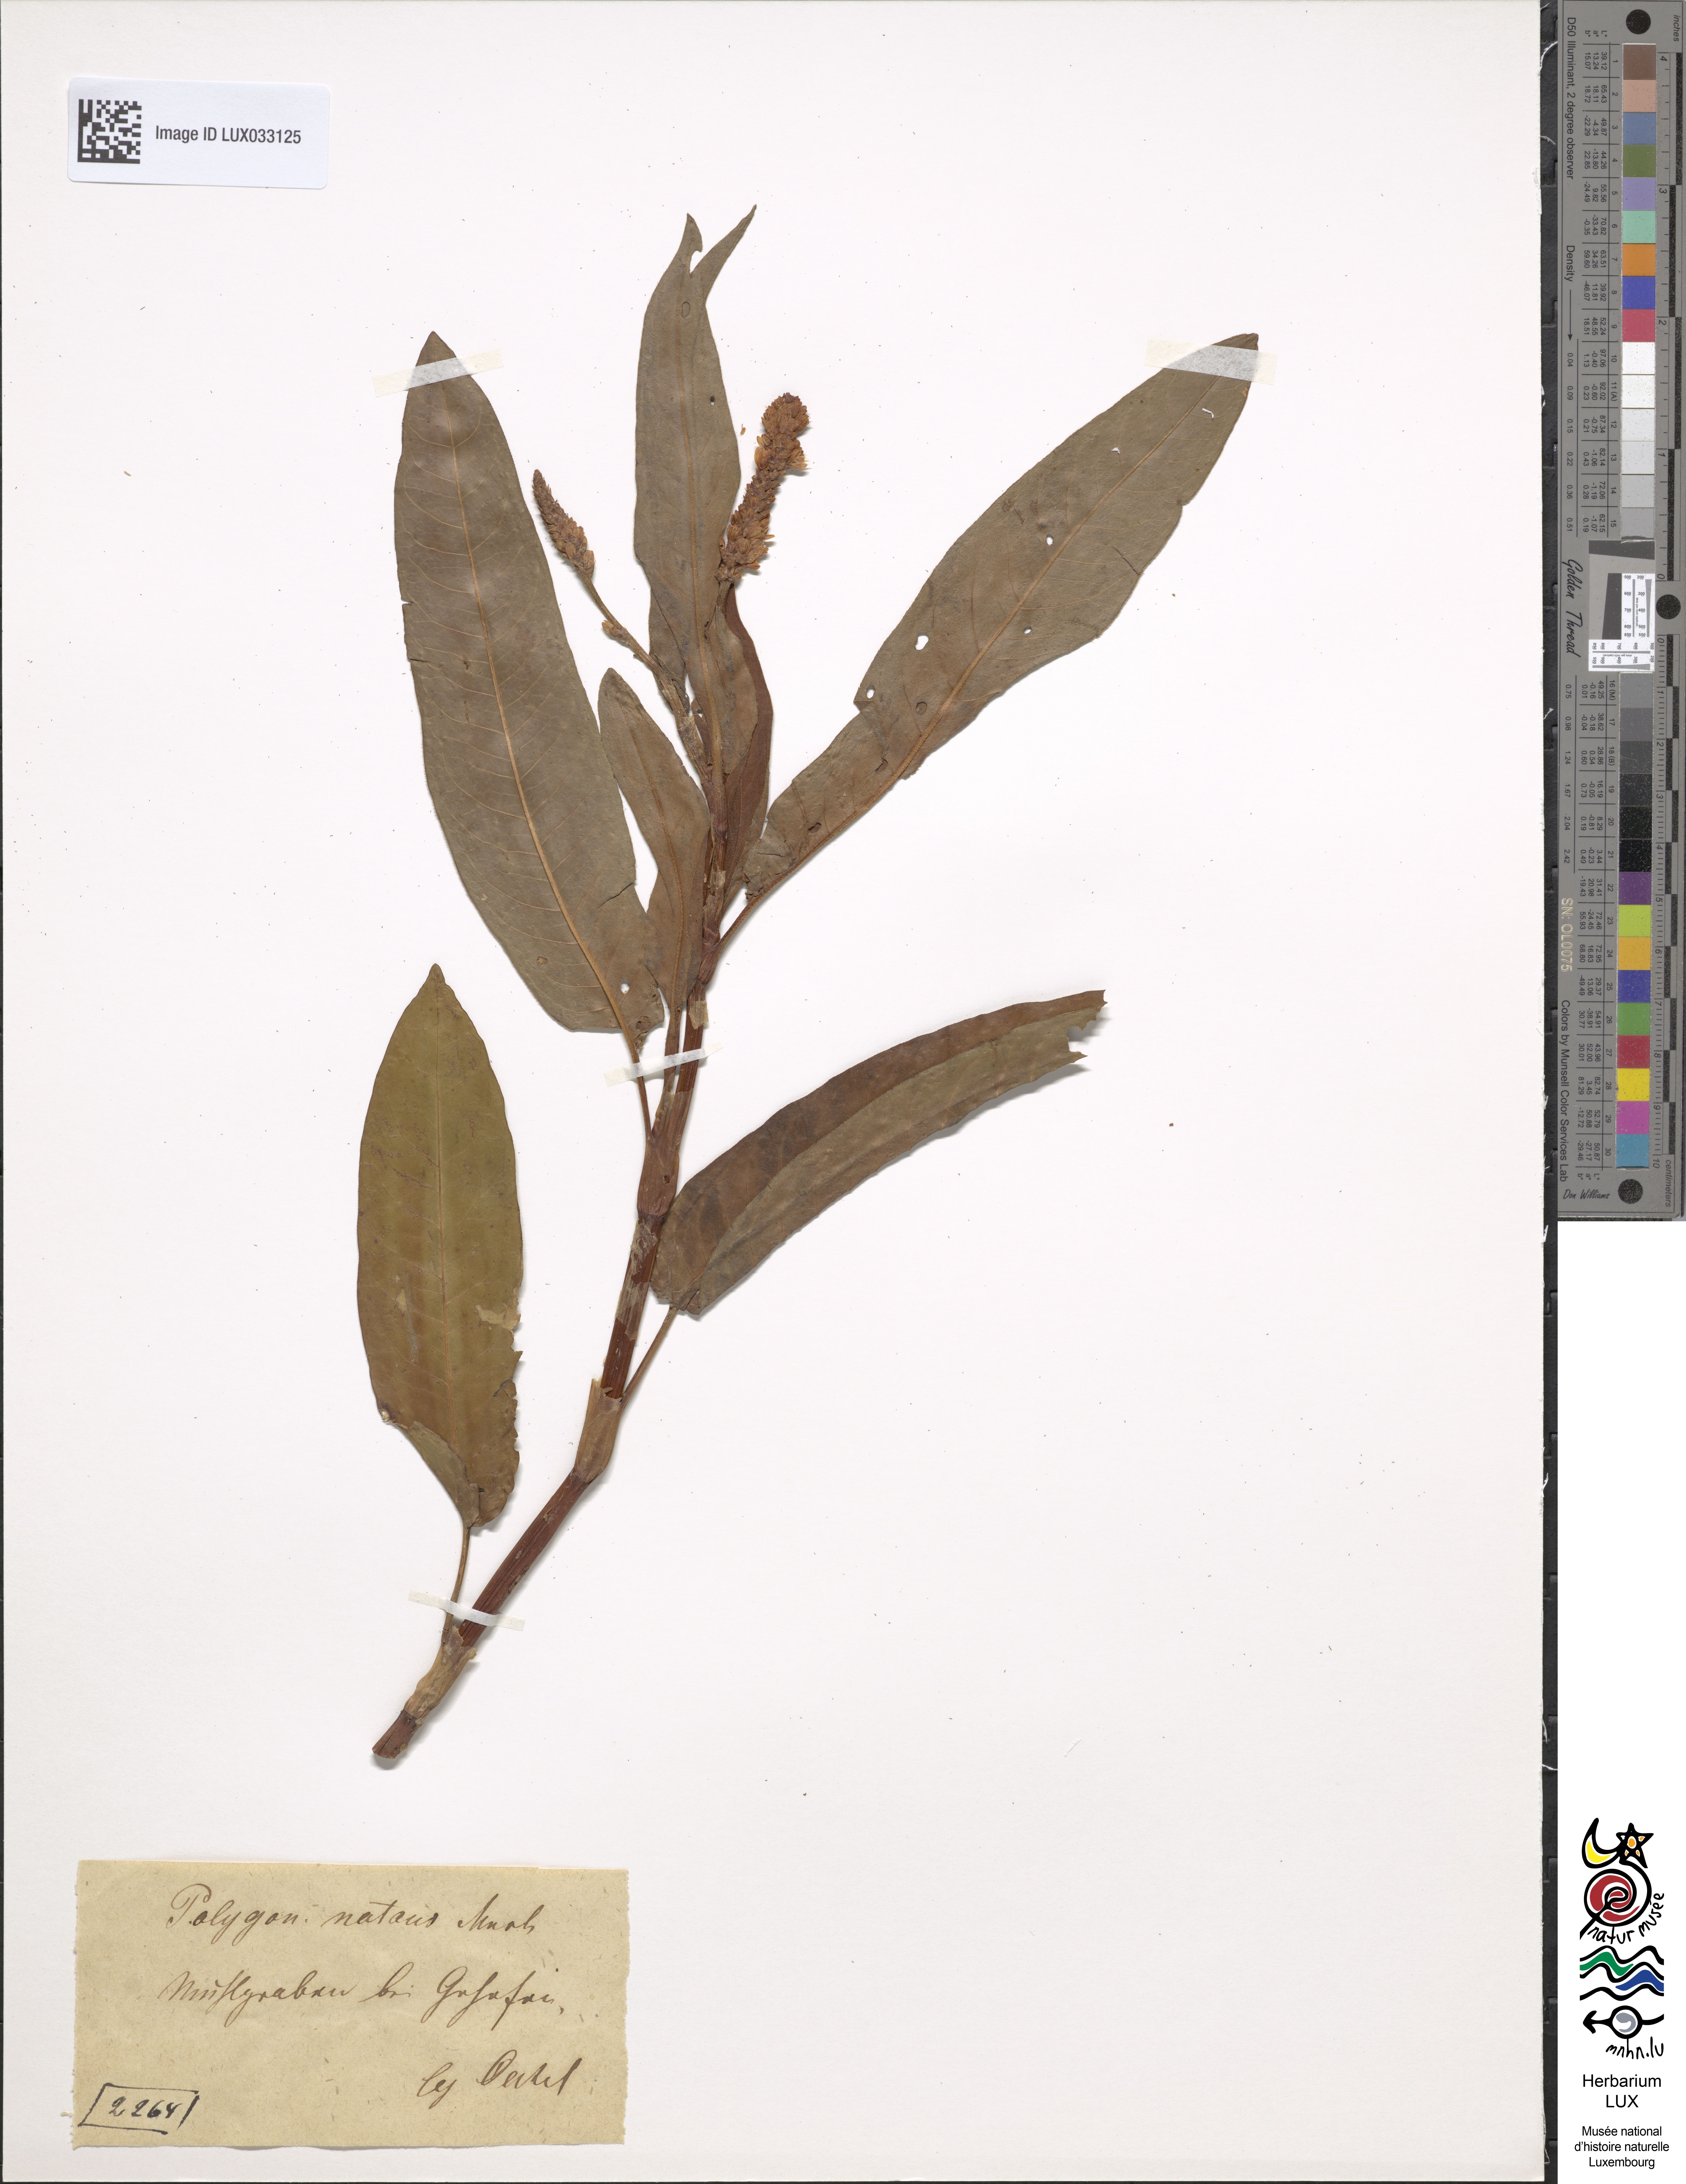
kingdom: Plantae
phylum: Tracheophyta
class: Magnoliopsida
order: Caryophyllales
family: Polygonaceae
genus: Persicaria
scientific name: Persicaria amphibia
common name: Amphibious bistort
